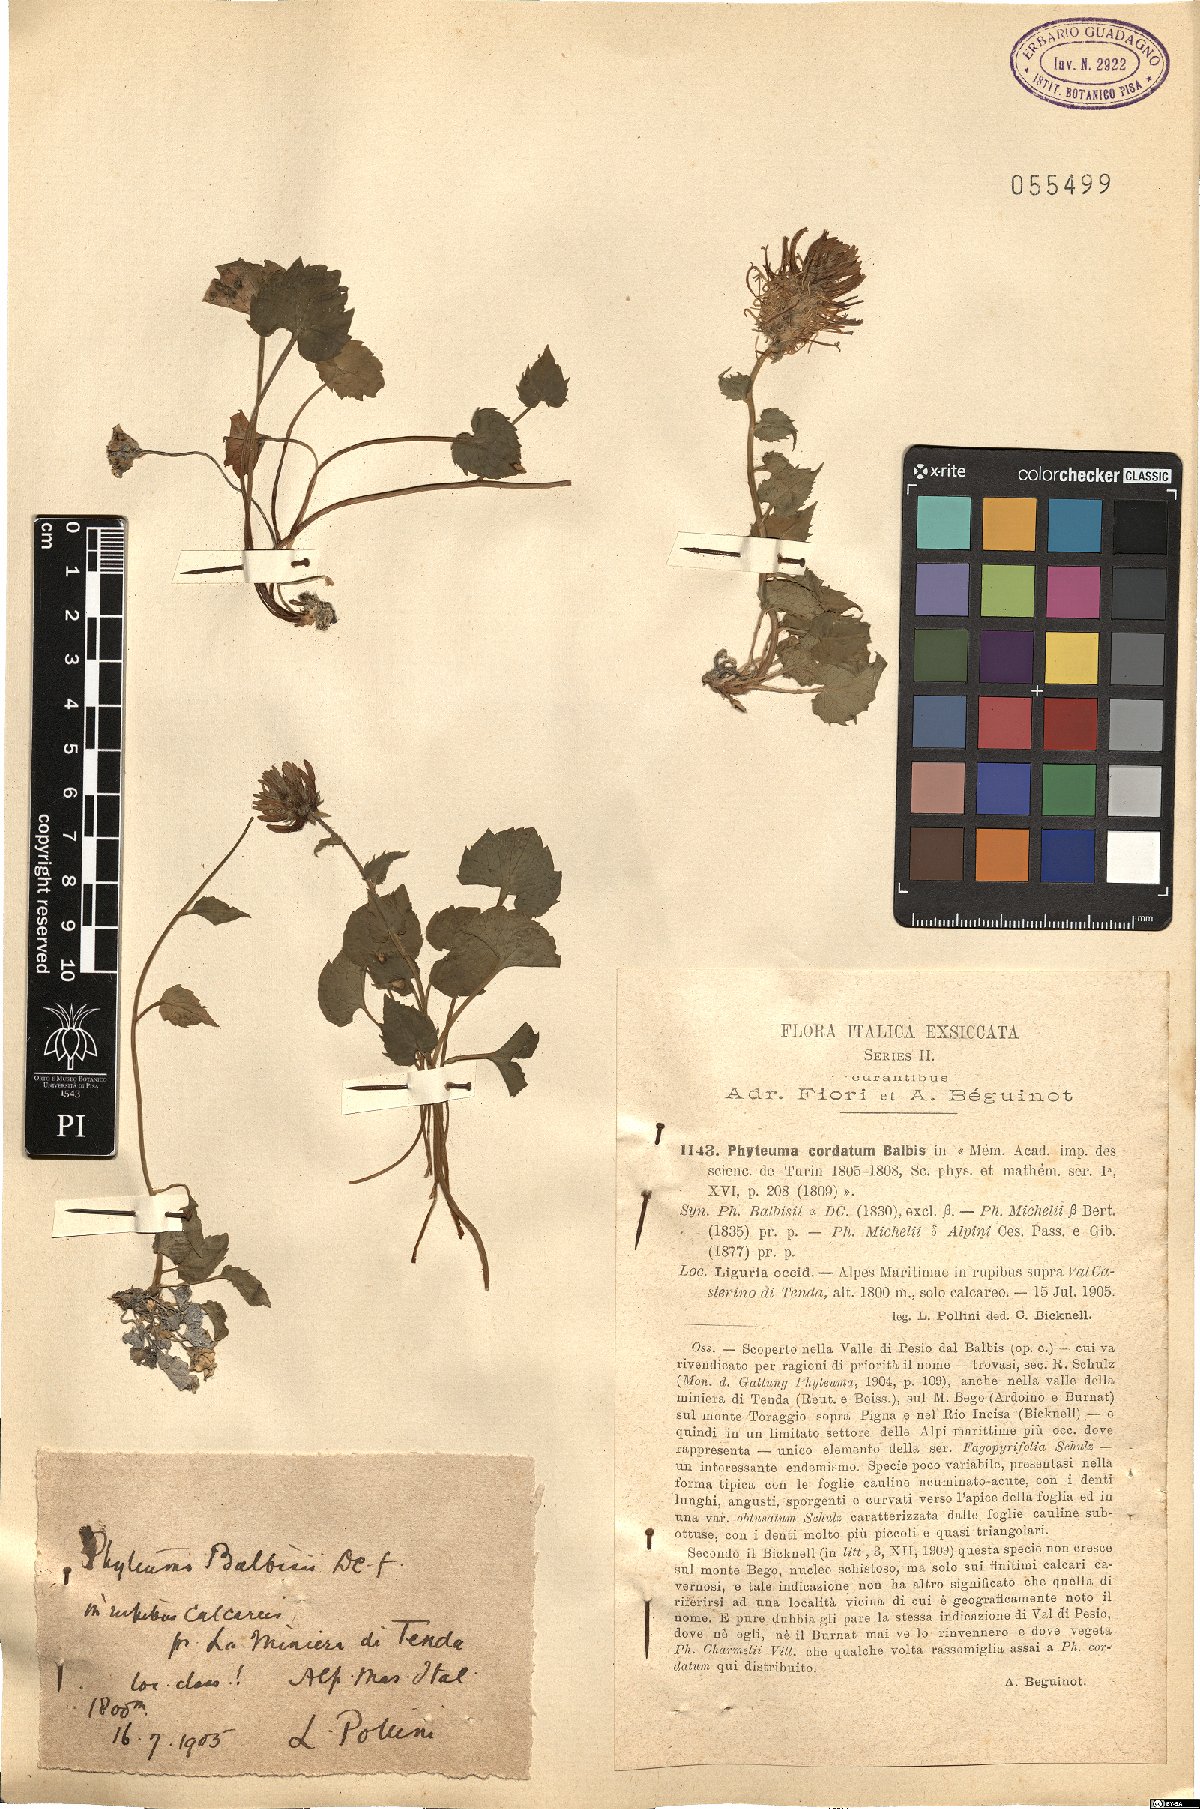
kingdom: Plantae
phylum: Tracheophyta
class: Magnoliopsida
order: Asterales
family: Campanulaceae
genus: Phyteuma
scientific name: Phyteuma cordatum
